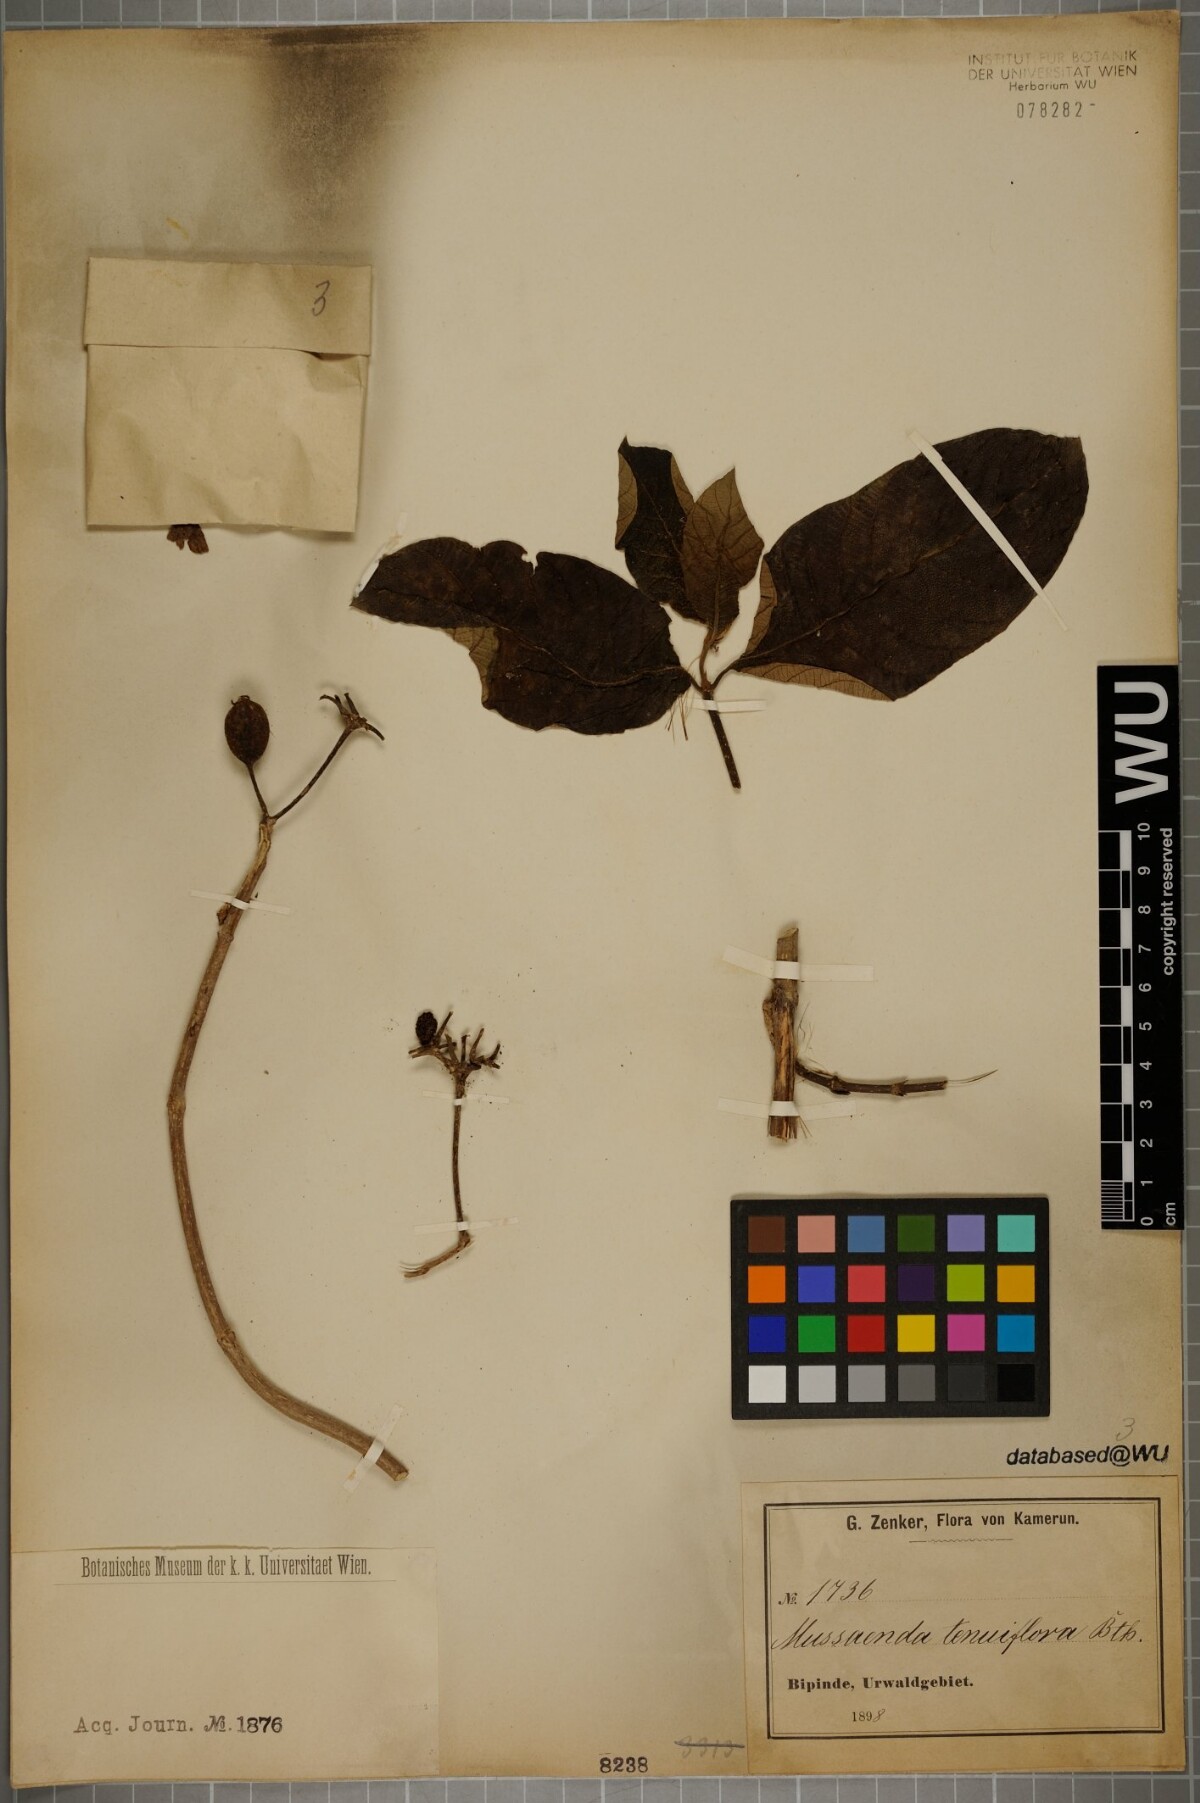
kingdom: Plantae
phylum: Tracheophyta
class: Magnoliopsida
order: Gentianales
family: Rubiaceae
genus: Mussaenda
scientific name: Mussaenda tenuiflora
